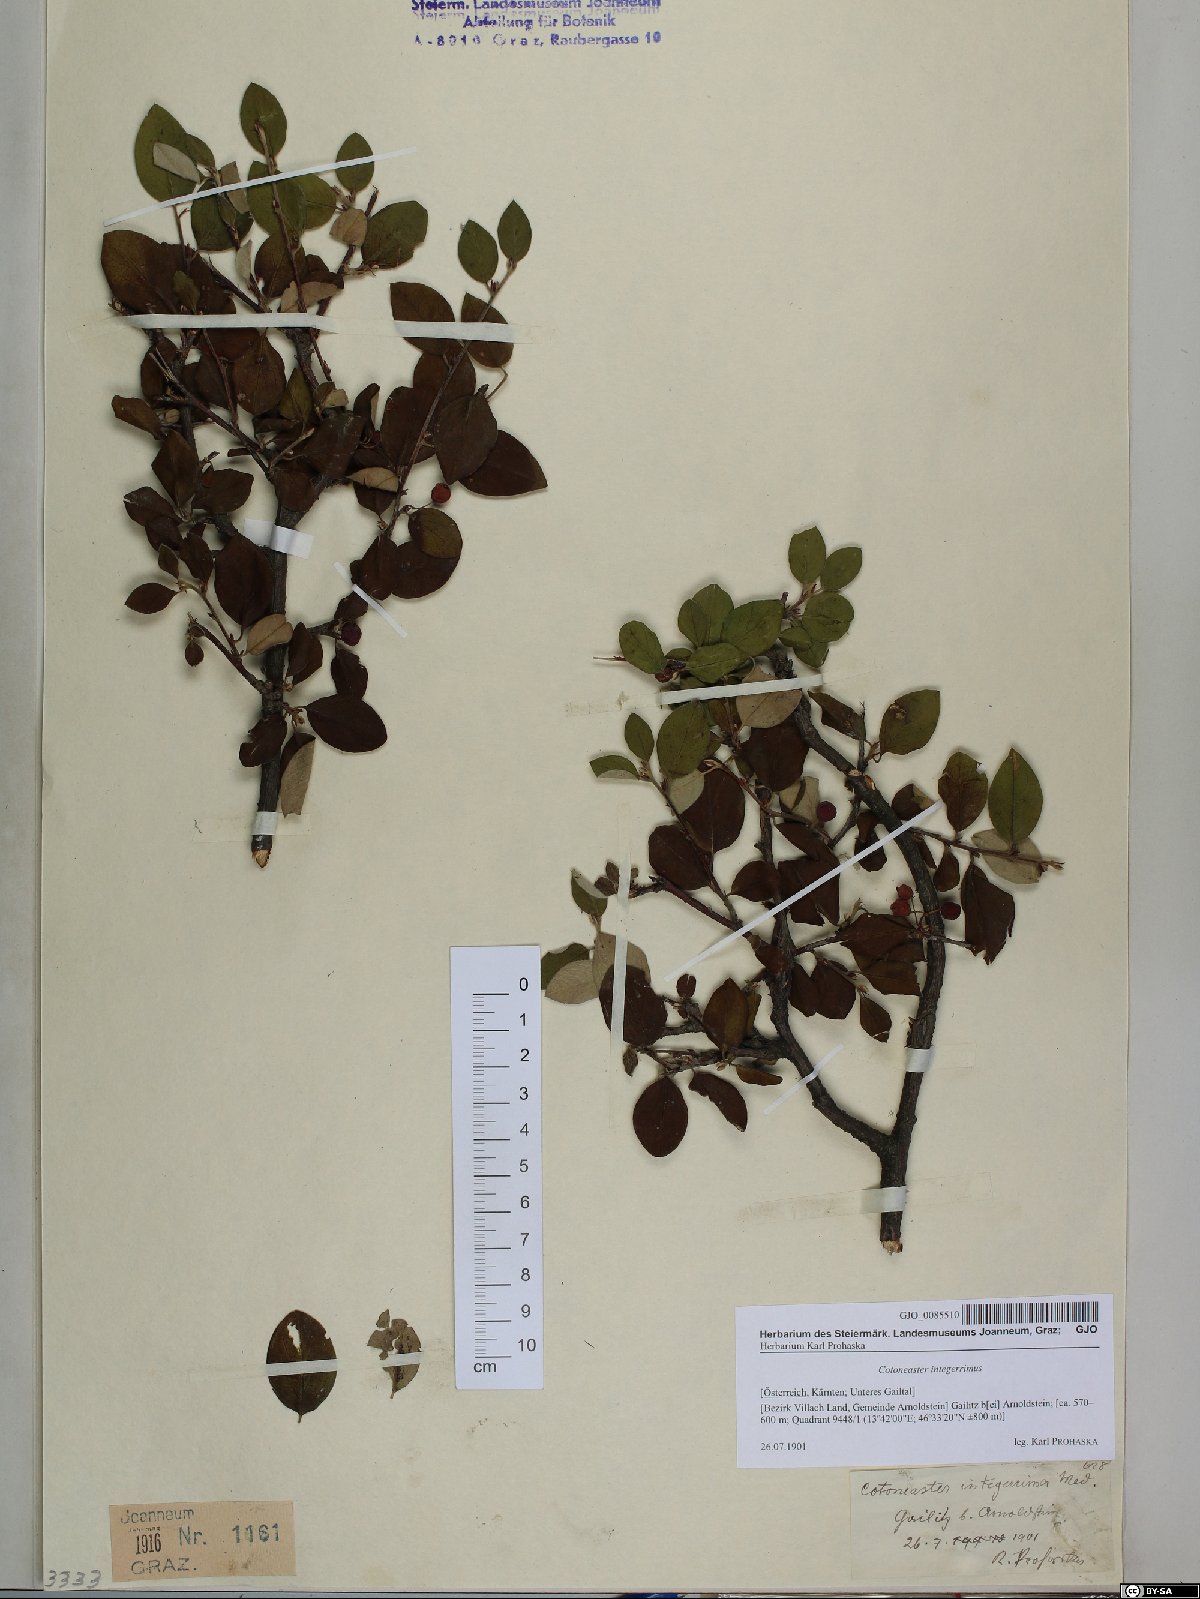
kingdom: Plantae
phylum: Tracheophyta
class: Magnoliopsida
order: Rosales
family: Rosaceae
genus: Cotoneaster
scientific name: Cotoneaster integerrimus
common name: Wild cotoneaster
